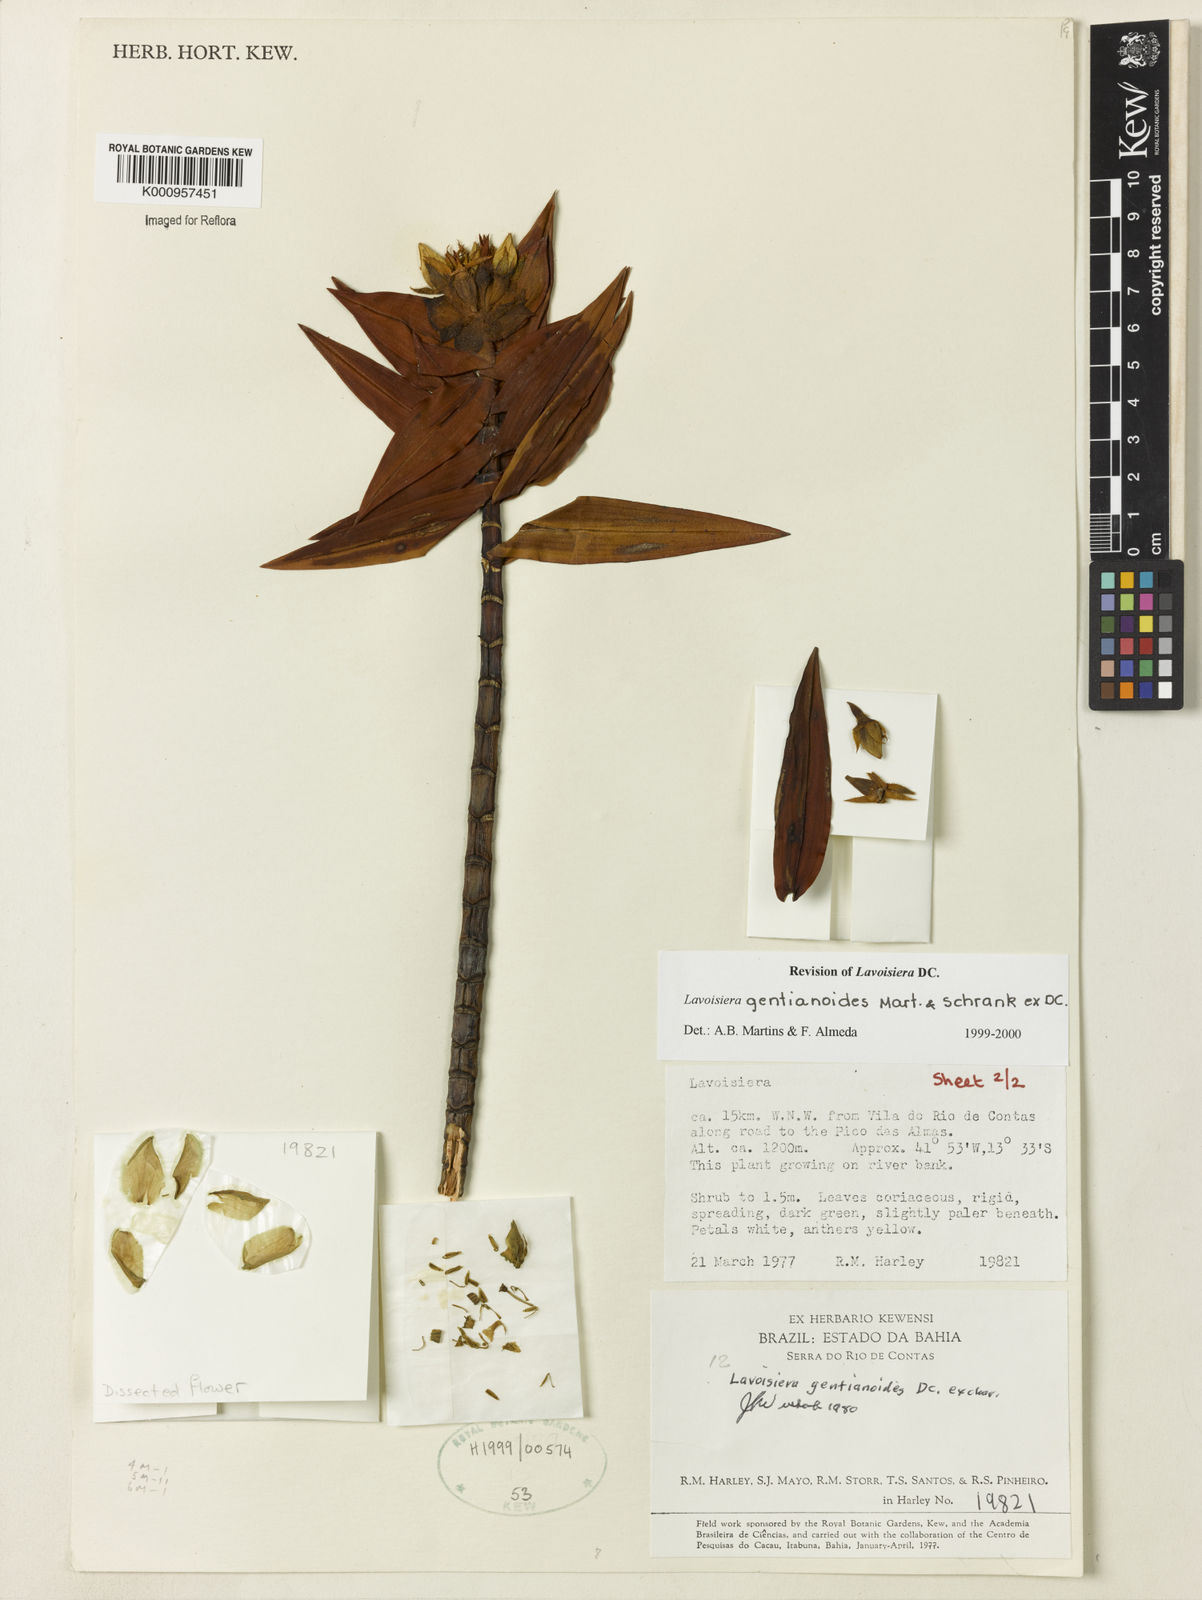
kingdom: Plantae
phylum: Tracheophyta
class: Magnoliopsida
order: Myrtales
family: Melastomataceae
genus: Microlicia
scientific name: Microlicia gentianoides
